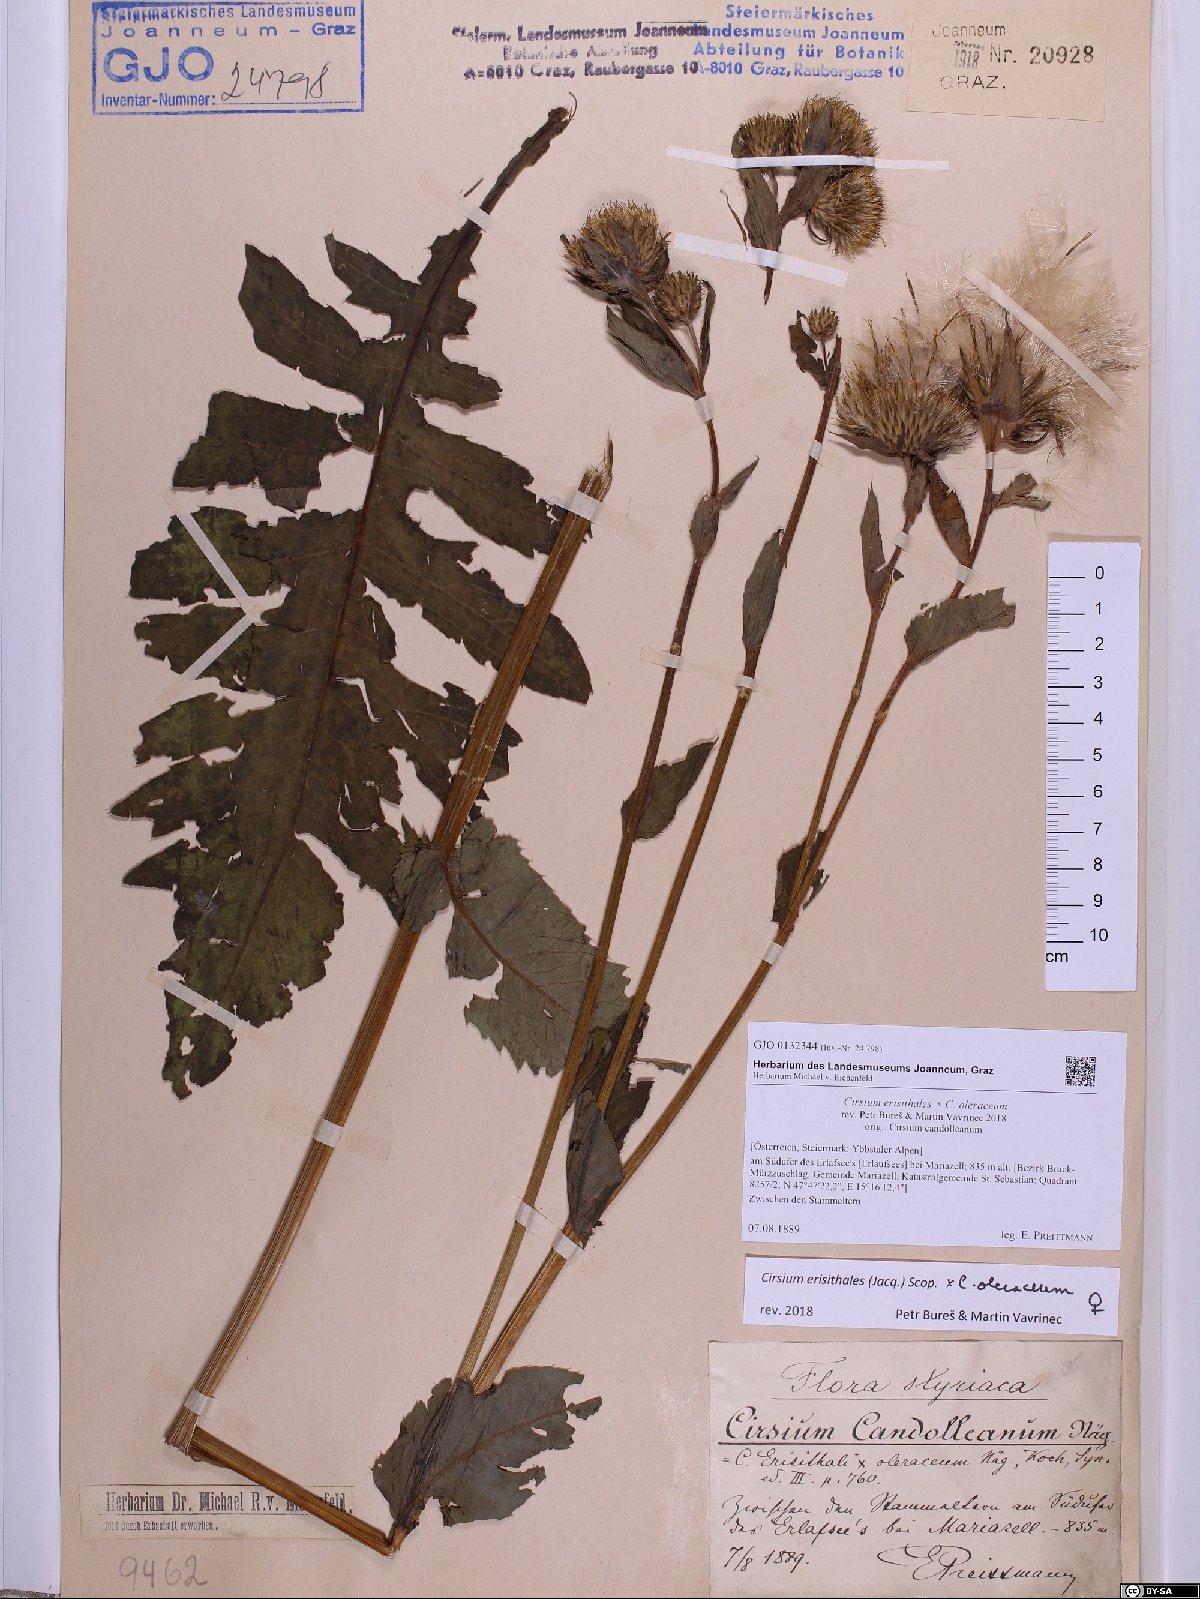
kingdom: Plantae
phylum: Tracheophyta
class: Magnoliopsida
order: Asterales
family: Asteraceae
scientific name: Asteraceae
